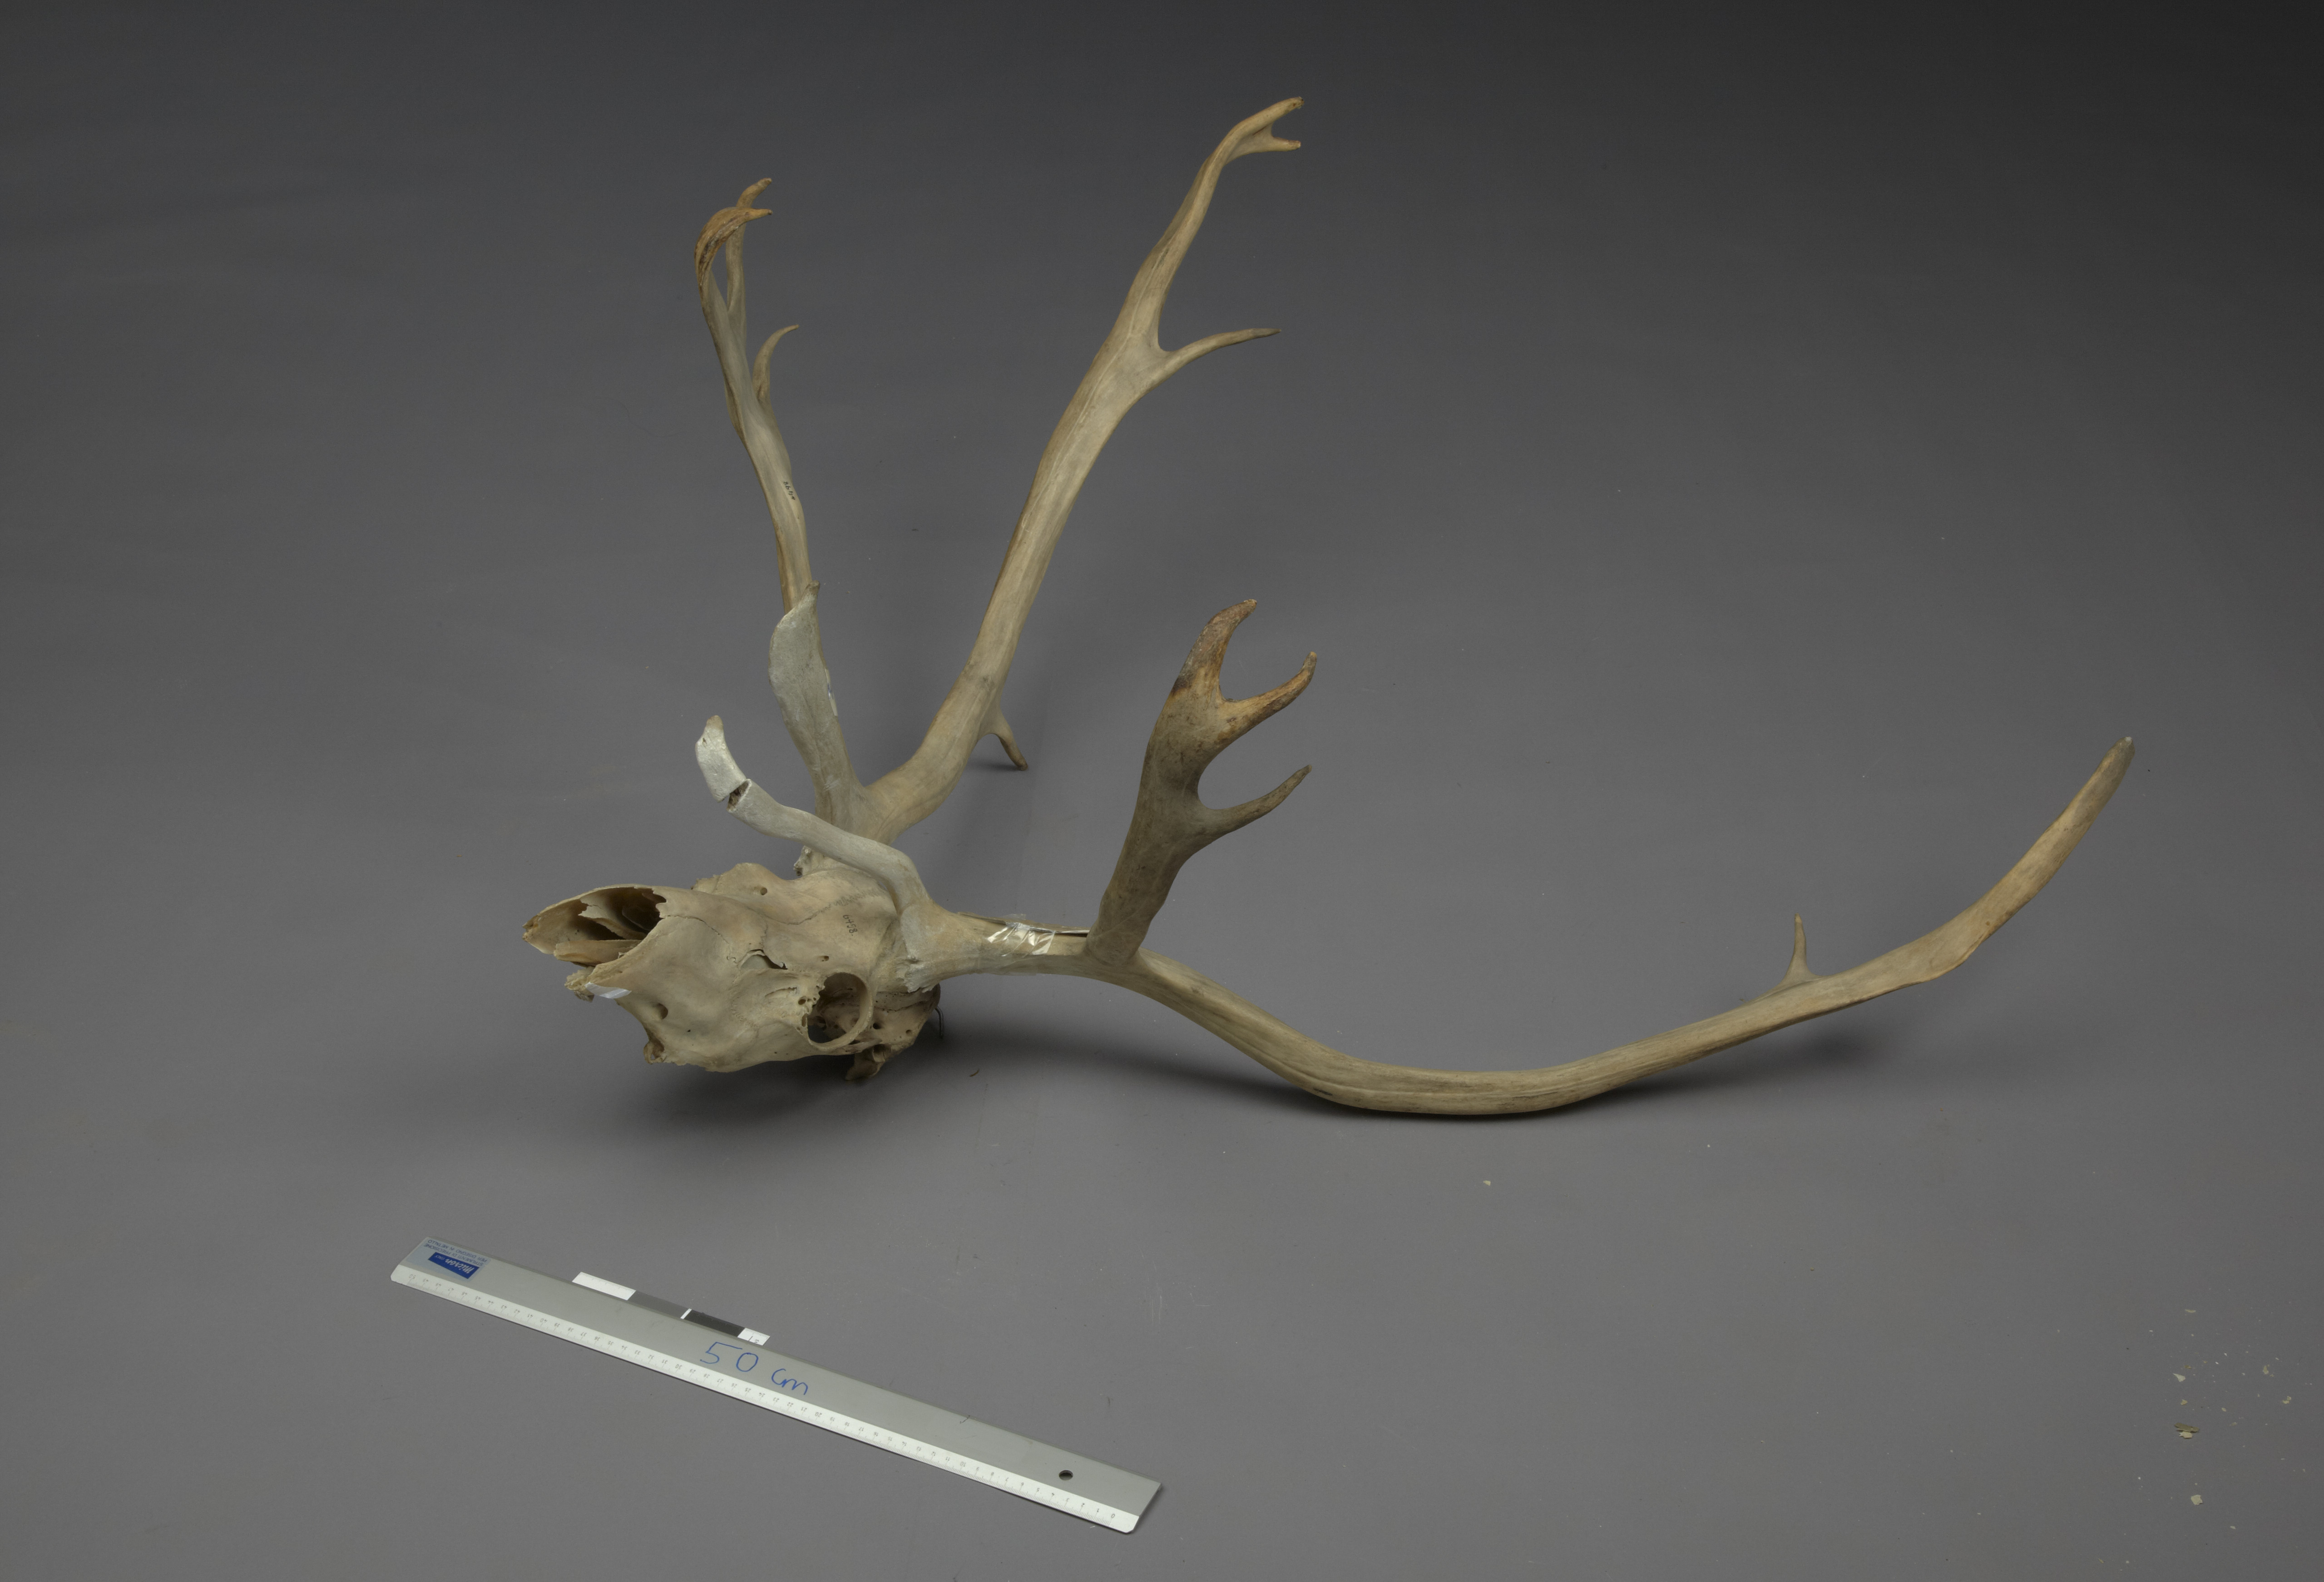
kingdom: Animalia
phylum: Chordata
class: Mammalia
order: Artiodactyla
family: Cervidae
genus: Rangifer
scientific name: Rangifer tarandus
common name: Reindeer
